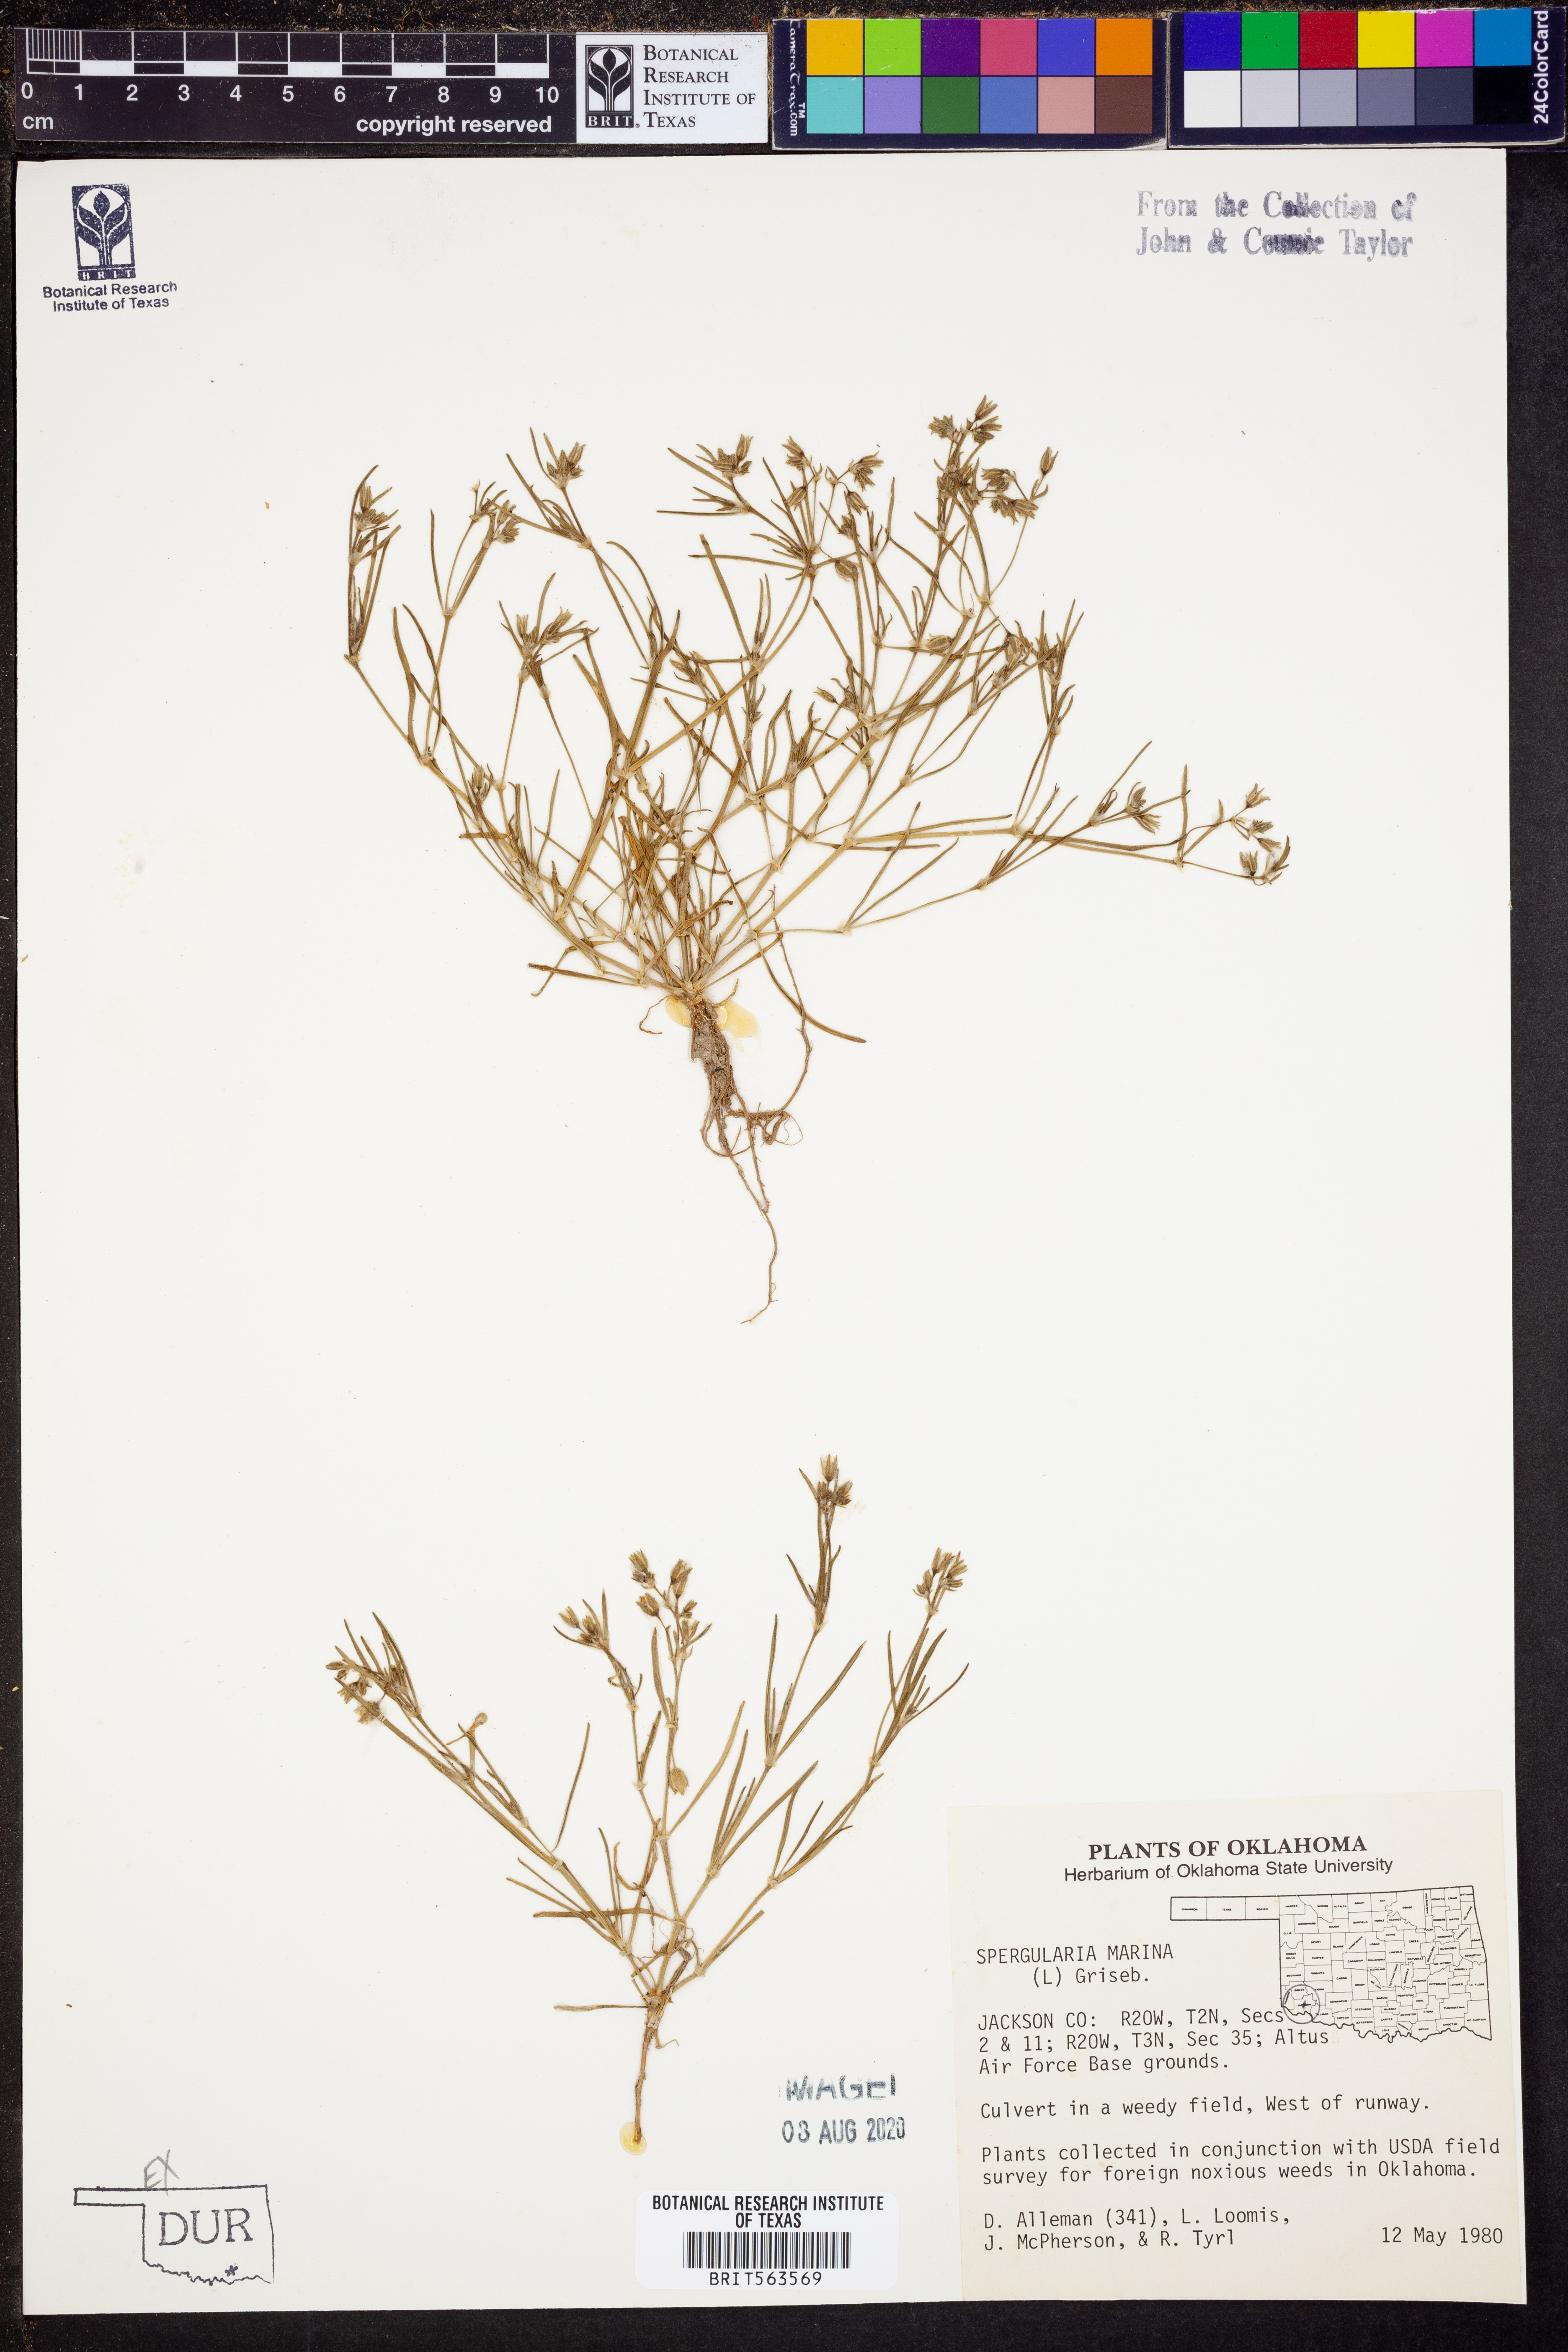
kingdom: Plantae
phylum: Tracheophyta
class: Magnoliopsida
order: Caryophyllales
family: Caryophyllaceae
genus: Spergularia
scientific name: Spergularia marina
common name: Lesser sea-spurrey
